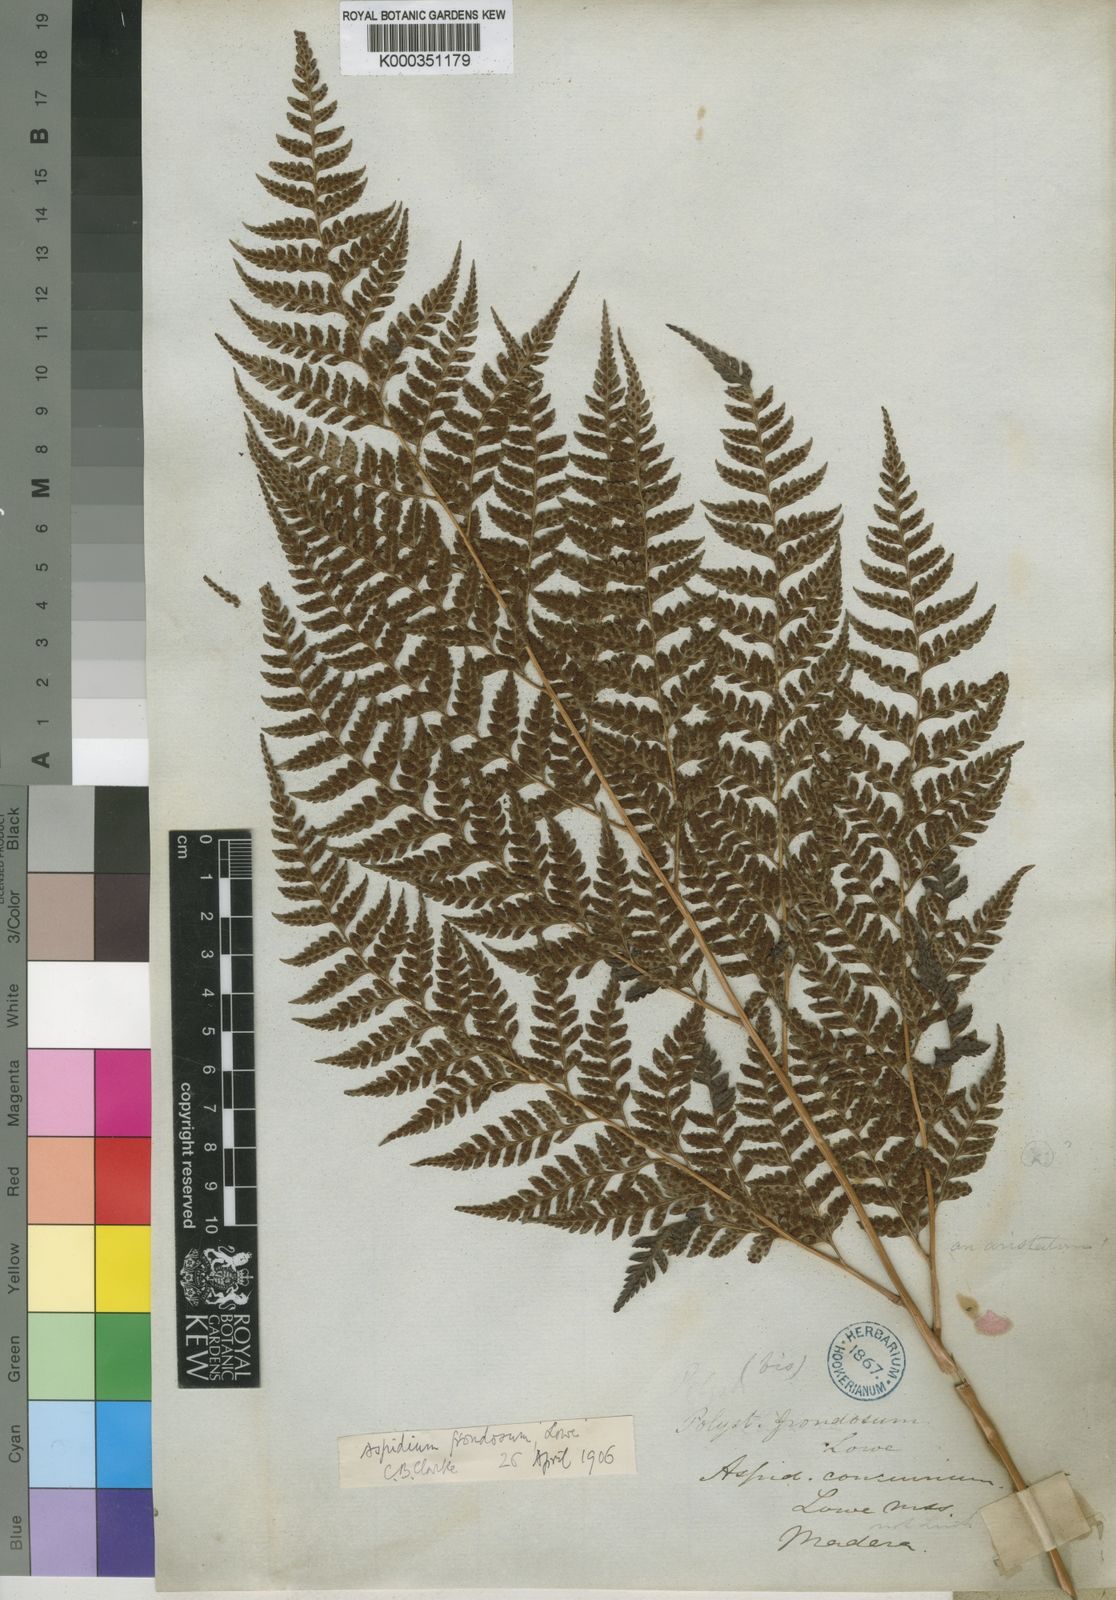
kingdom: Plantae
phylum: Tracheophyta
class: Polypodiopsida
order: Polypodiales
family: Dryopteridaceae
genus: Arachniodes
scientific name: Arachniodes webbiana
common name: Madeira holly fern
